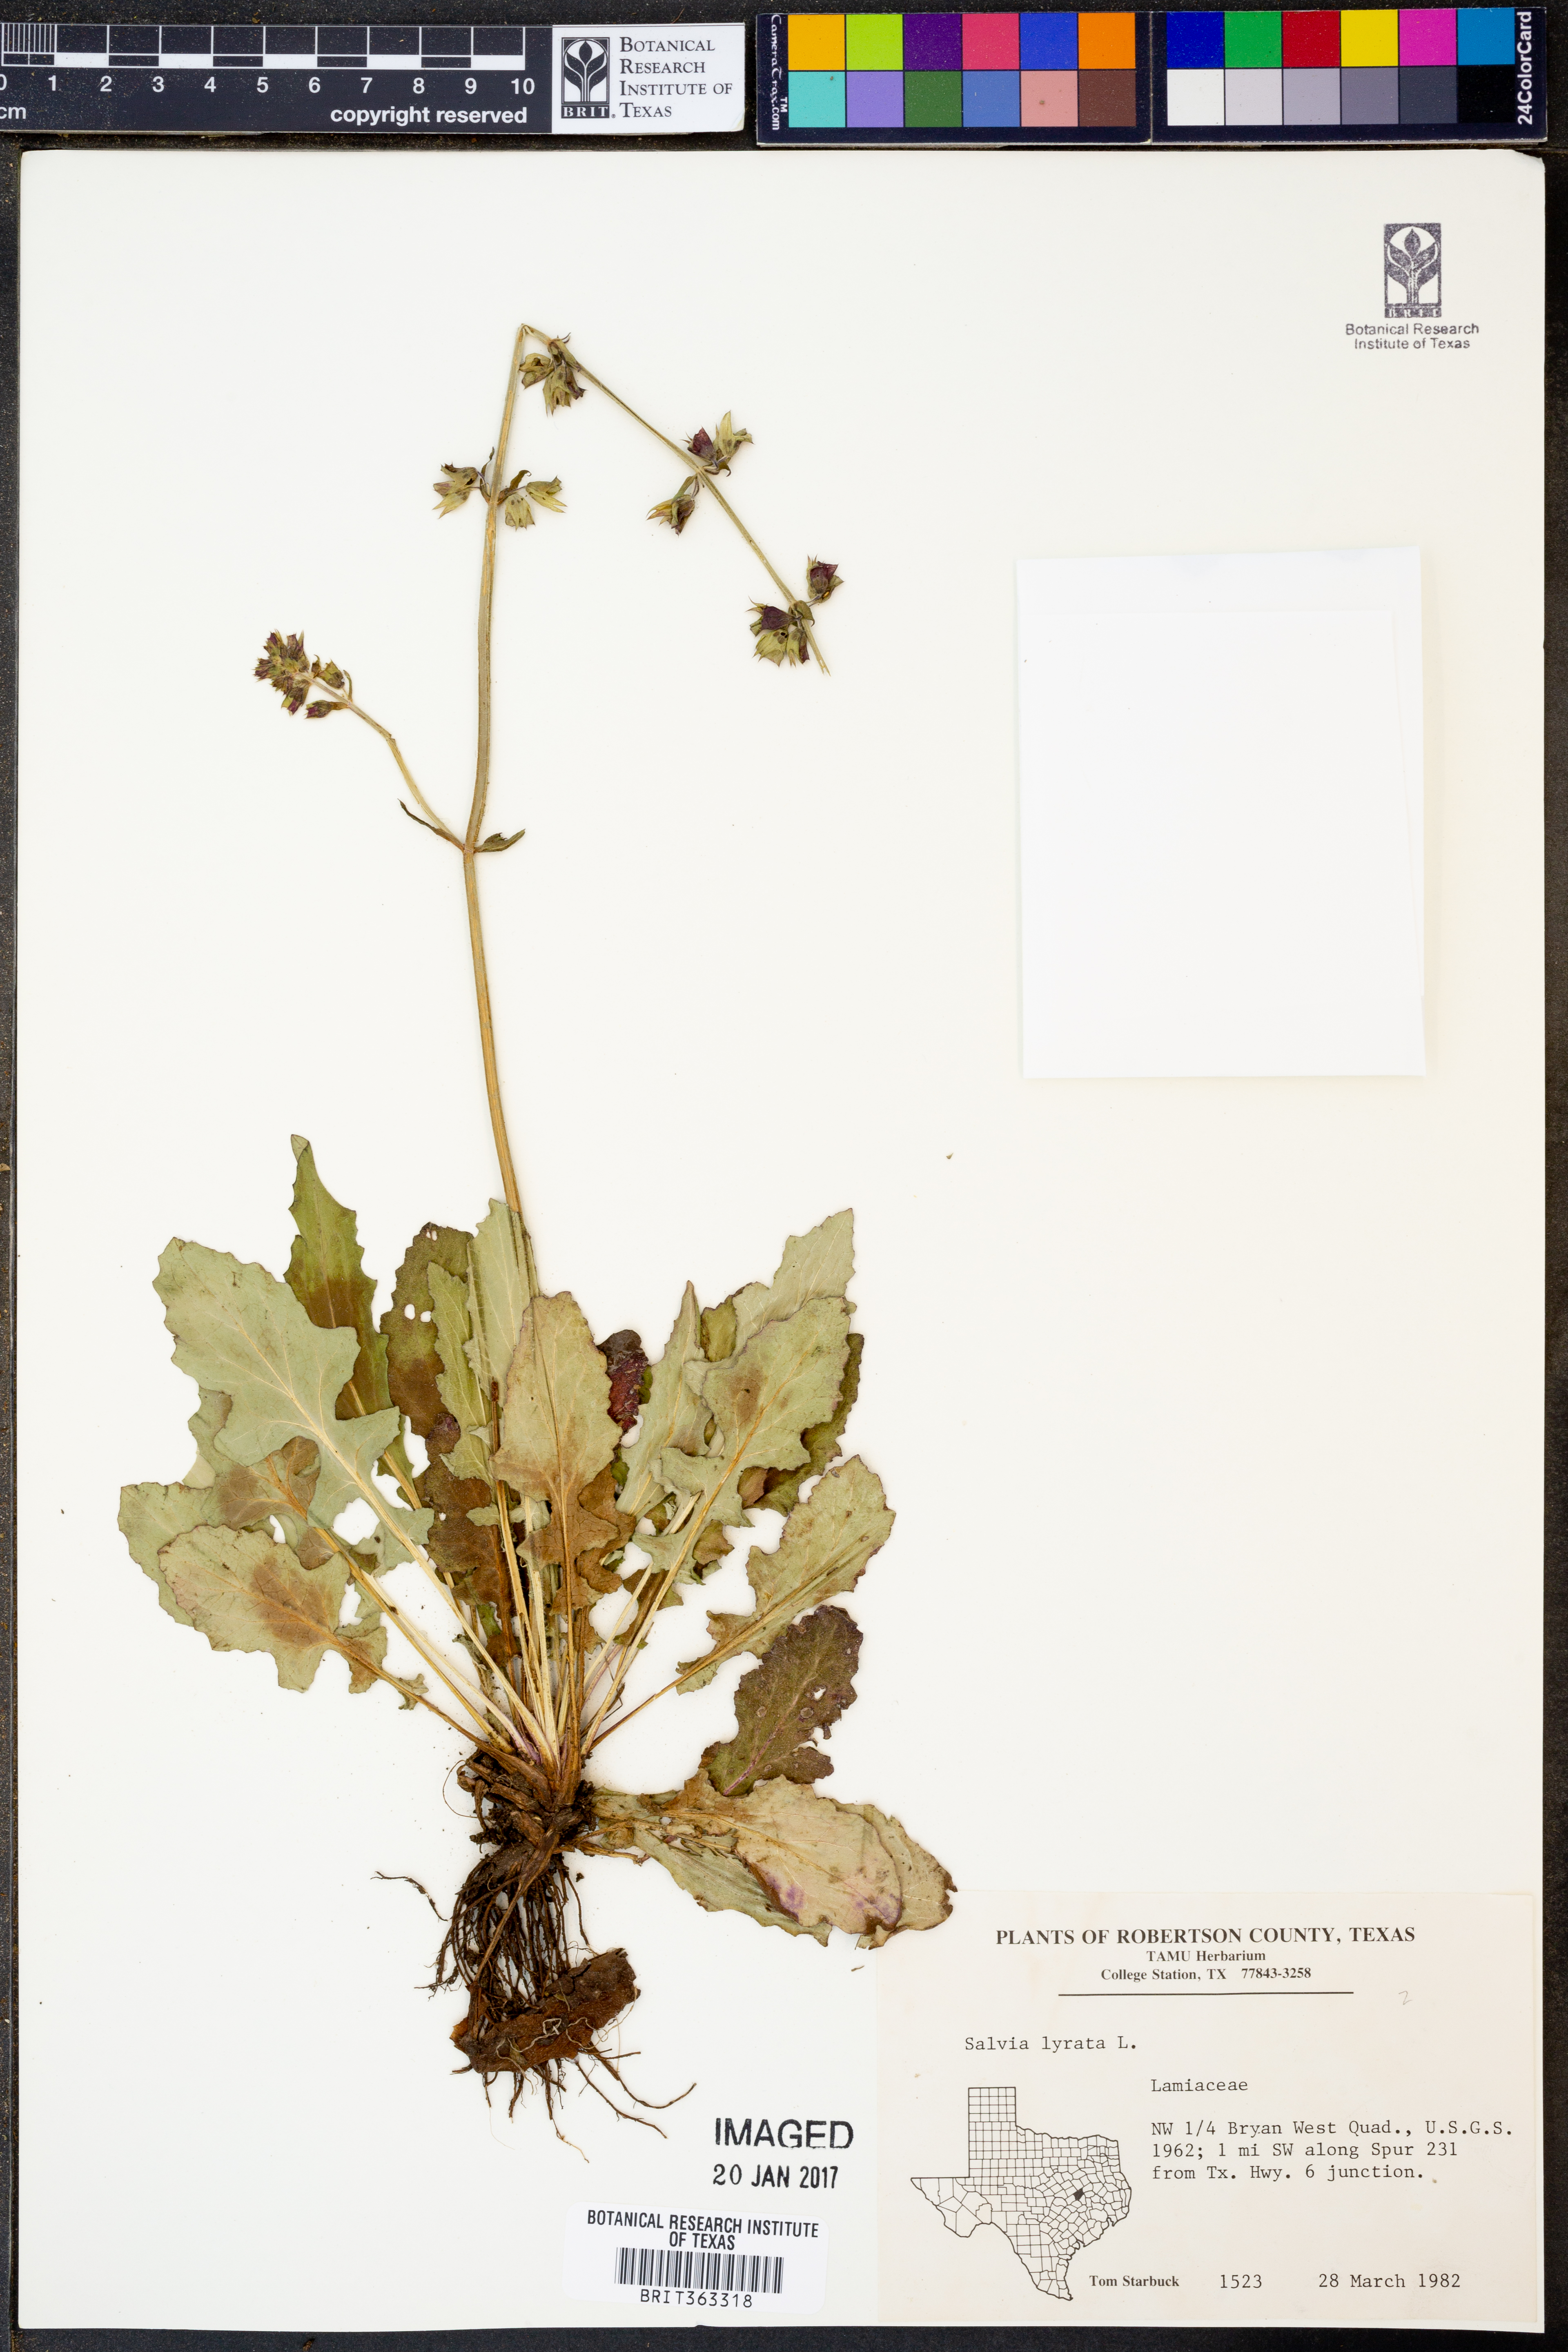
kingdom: Plantae
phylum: Tracheophyta
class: Magnoliopsida
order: Lamiales
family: Lamiaceae
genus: Salvia
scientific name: Salvia lyrata
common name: Cancerweed
